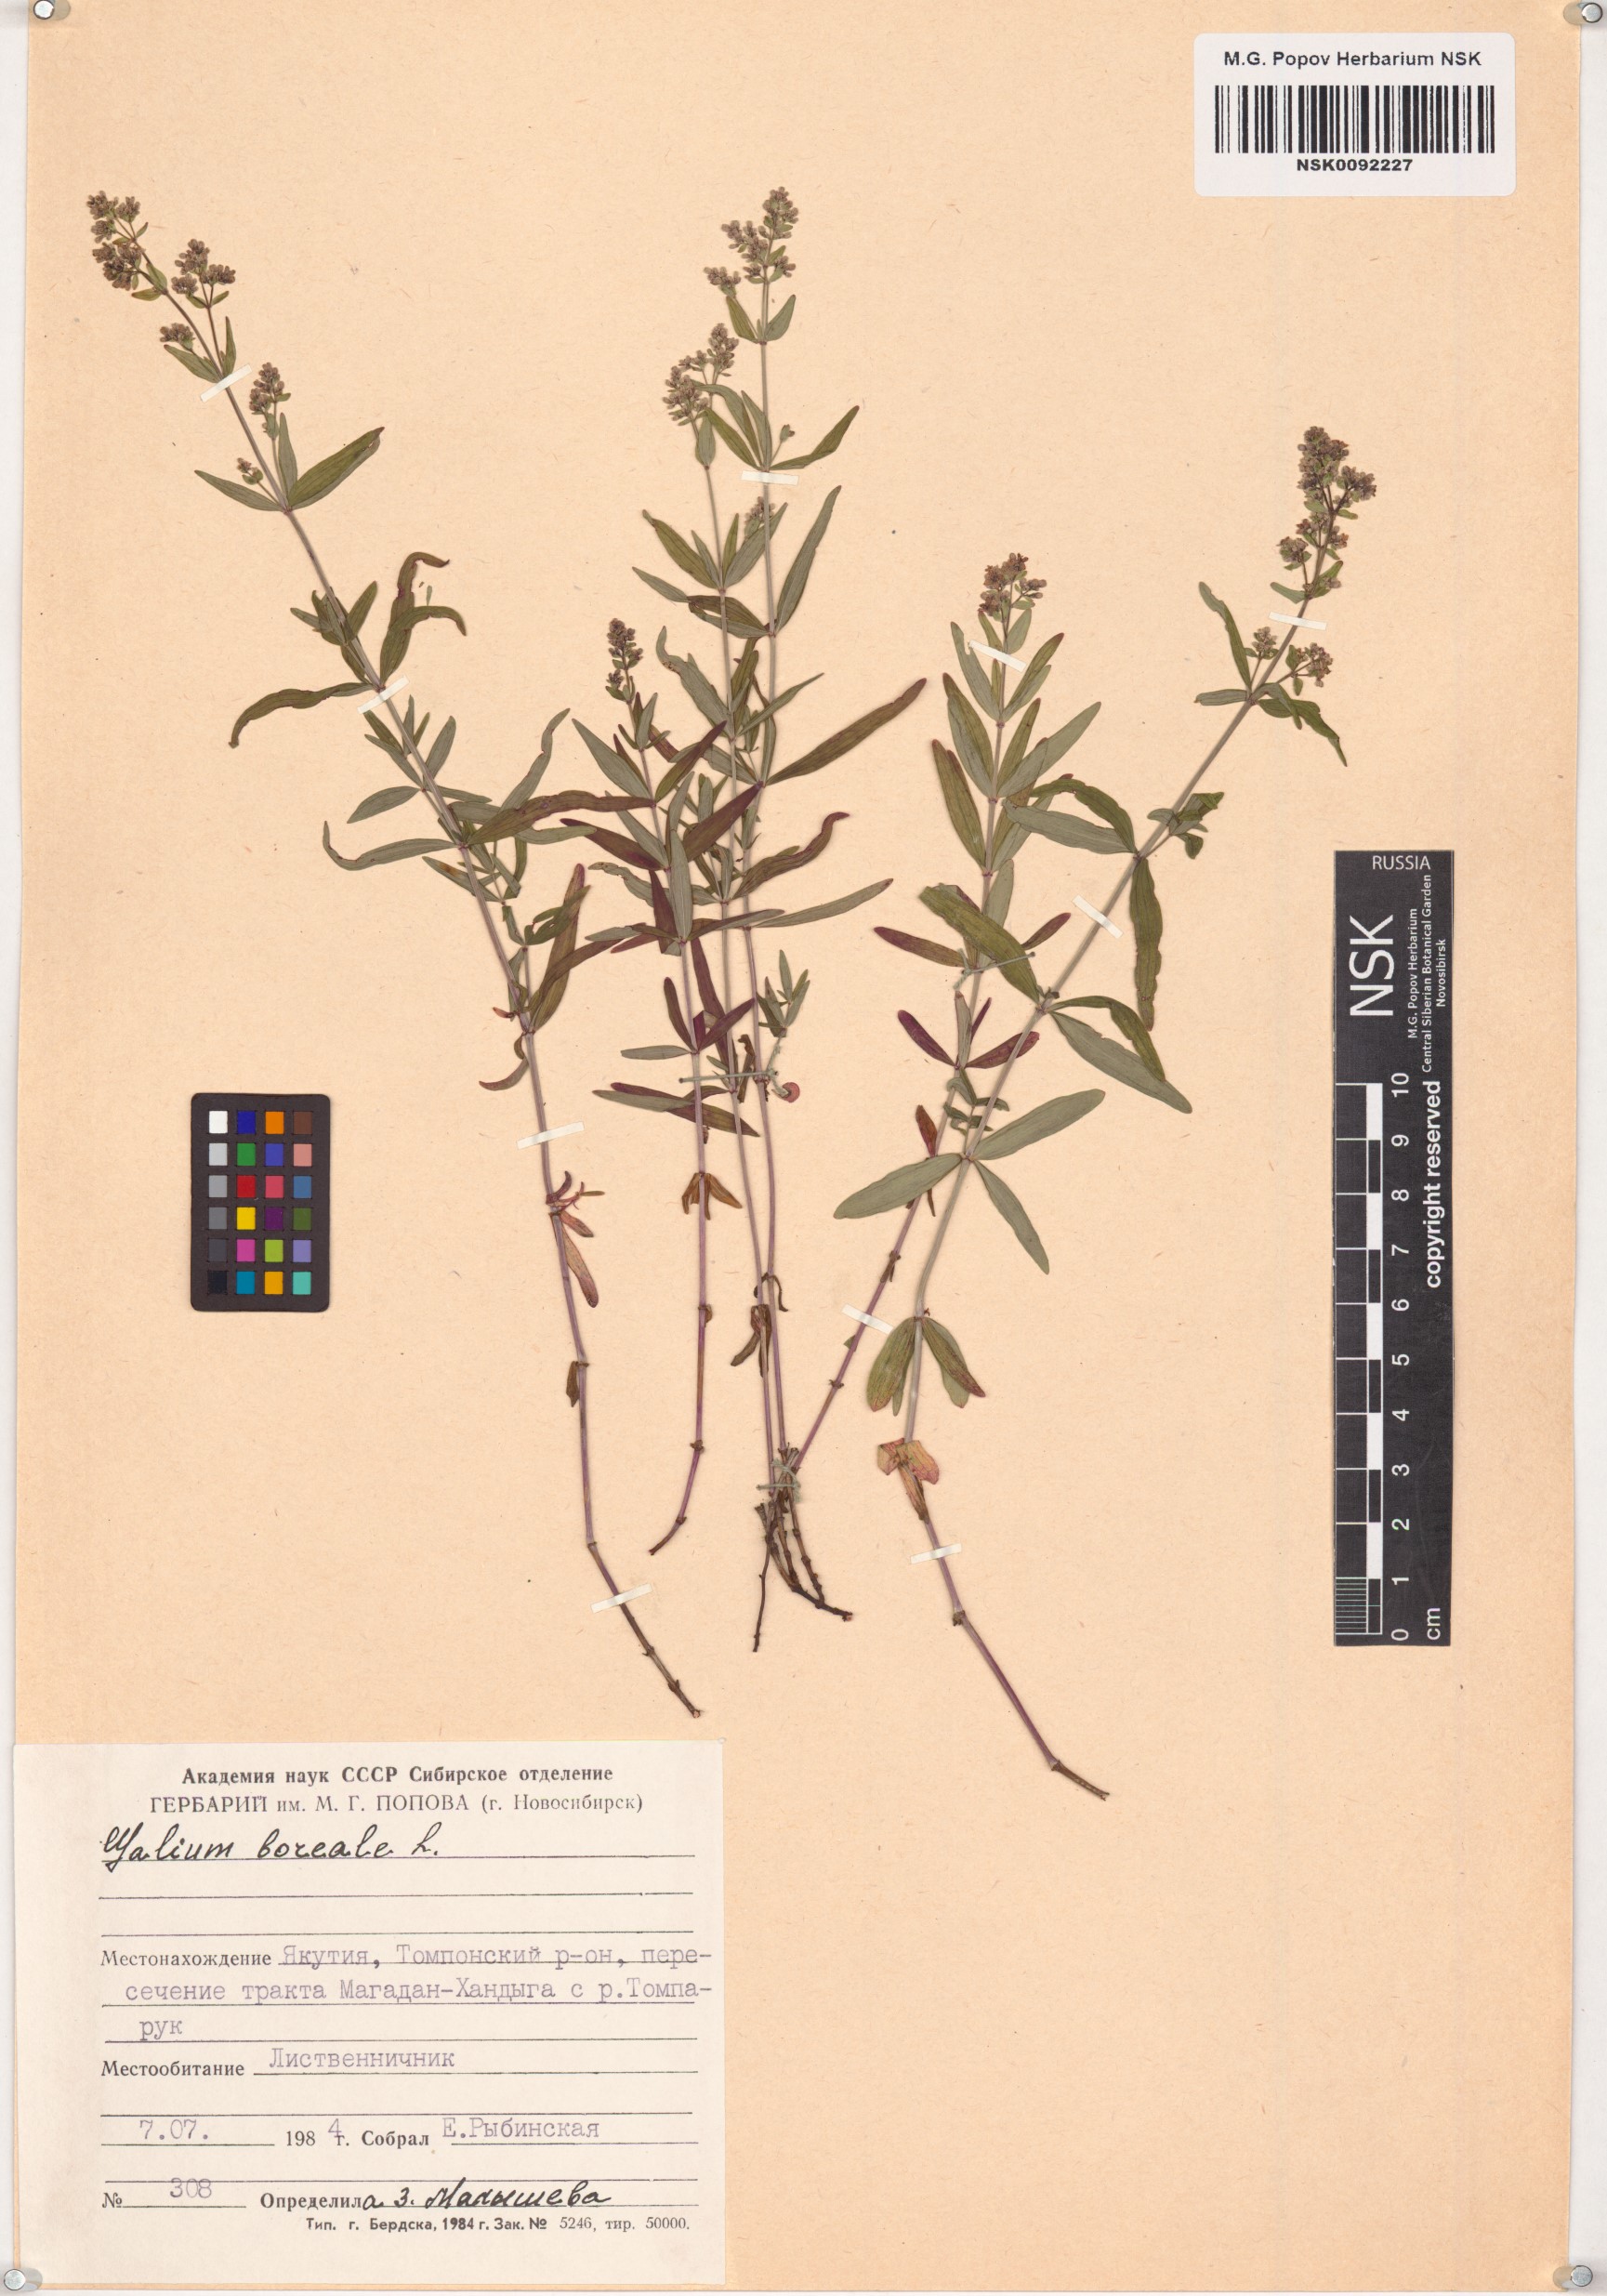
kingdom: Plantae
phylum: Tracheophyta
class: Magnoliopsida
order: Gentianales
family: Rubiaceae
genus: Galium
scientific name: Galium boreale
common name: Northern bedstraw
